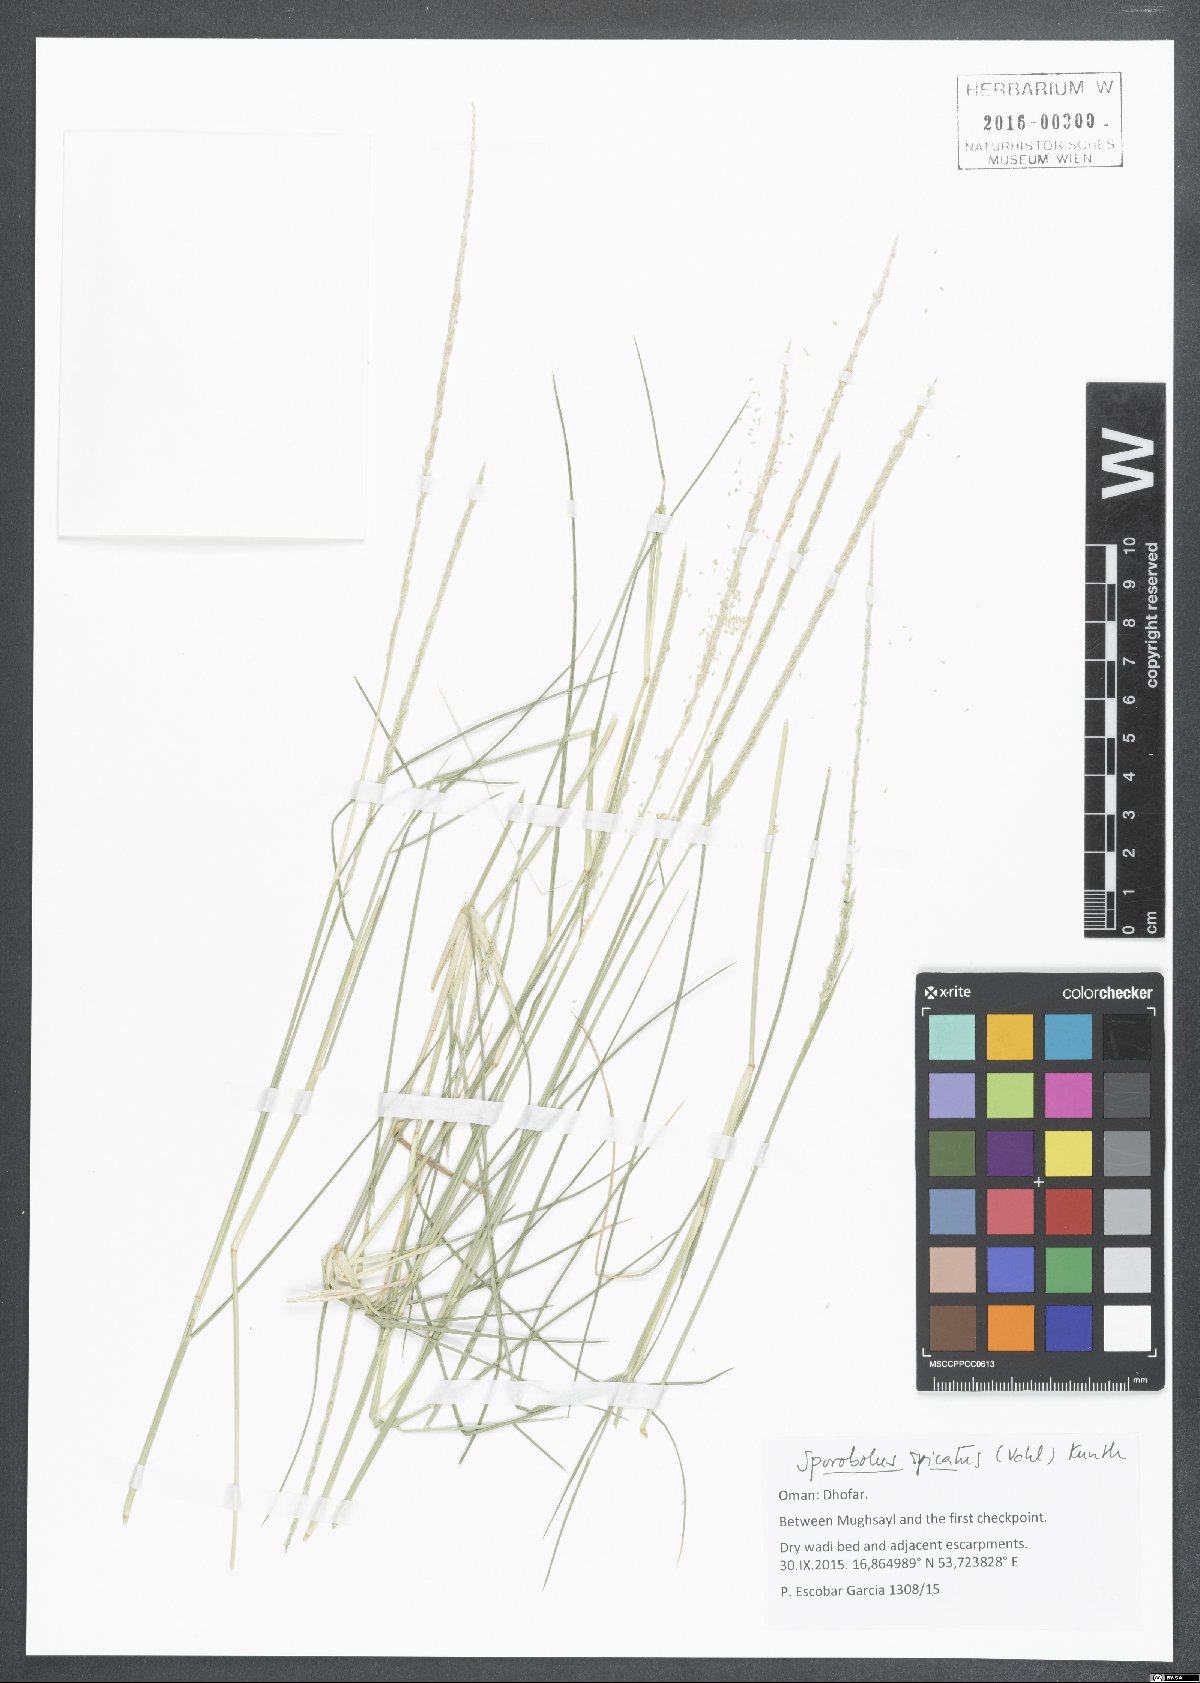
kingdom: Plantae
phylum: Tracheophyta
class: Liliopsida
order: Poales
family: Poaceae
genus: Sporobolus
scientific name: Sporobolus spicatus
